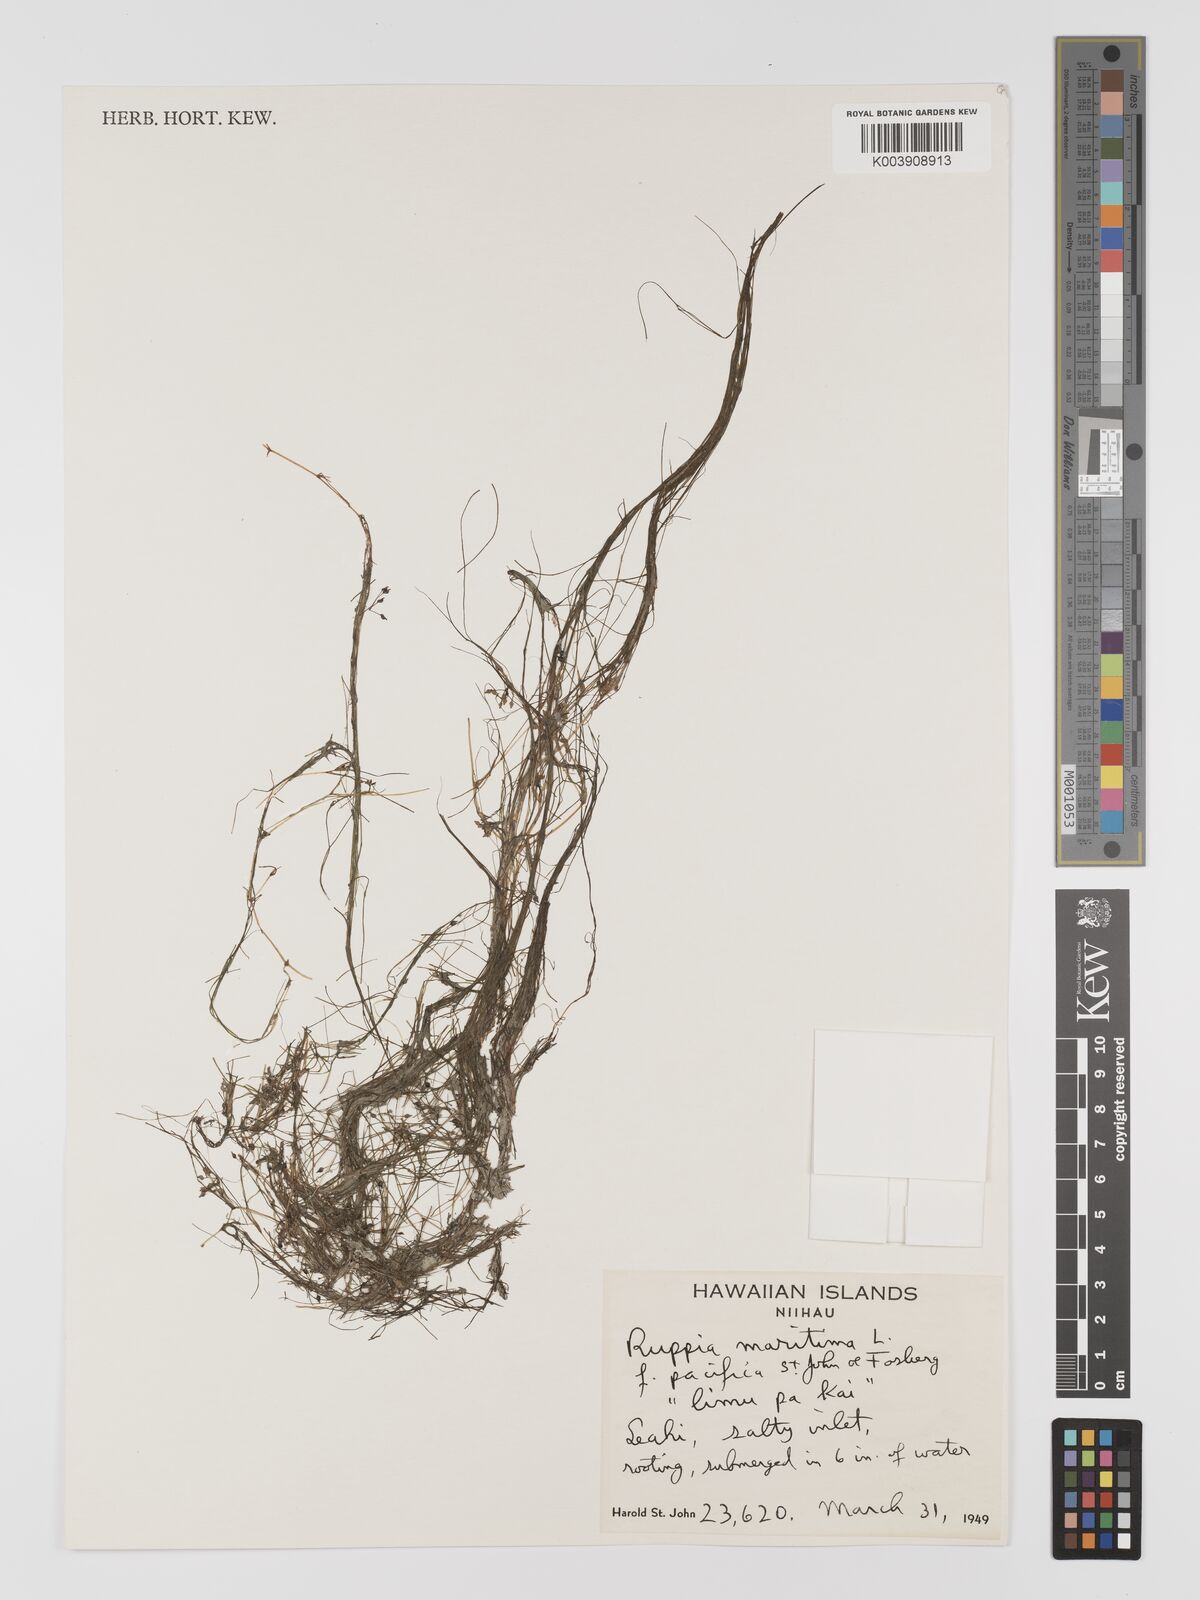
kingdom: Plantae
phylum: Tracheophyta
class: Liliopsida
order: Alismatales
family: Ruppiaceae
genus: Ruppia
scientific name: Ruppia maritima
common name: Beaked tasselweed
